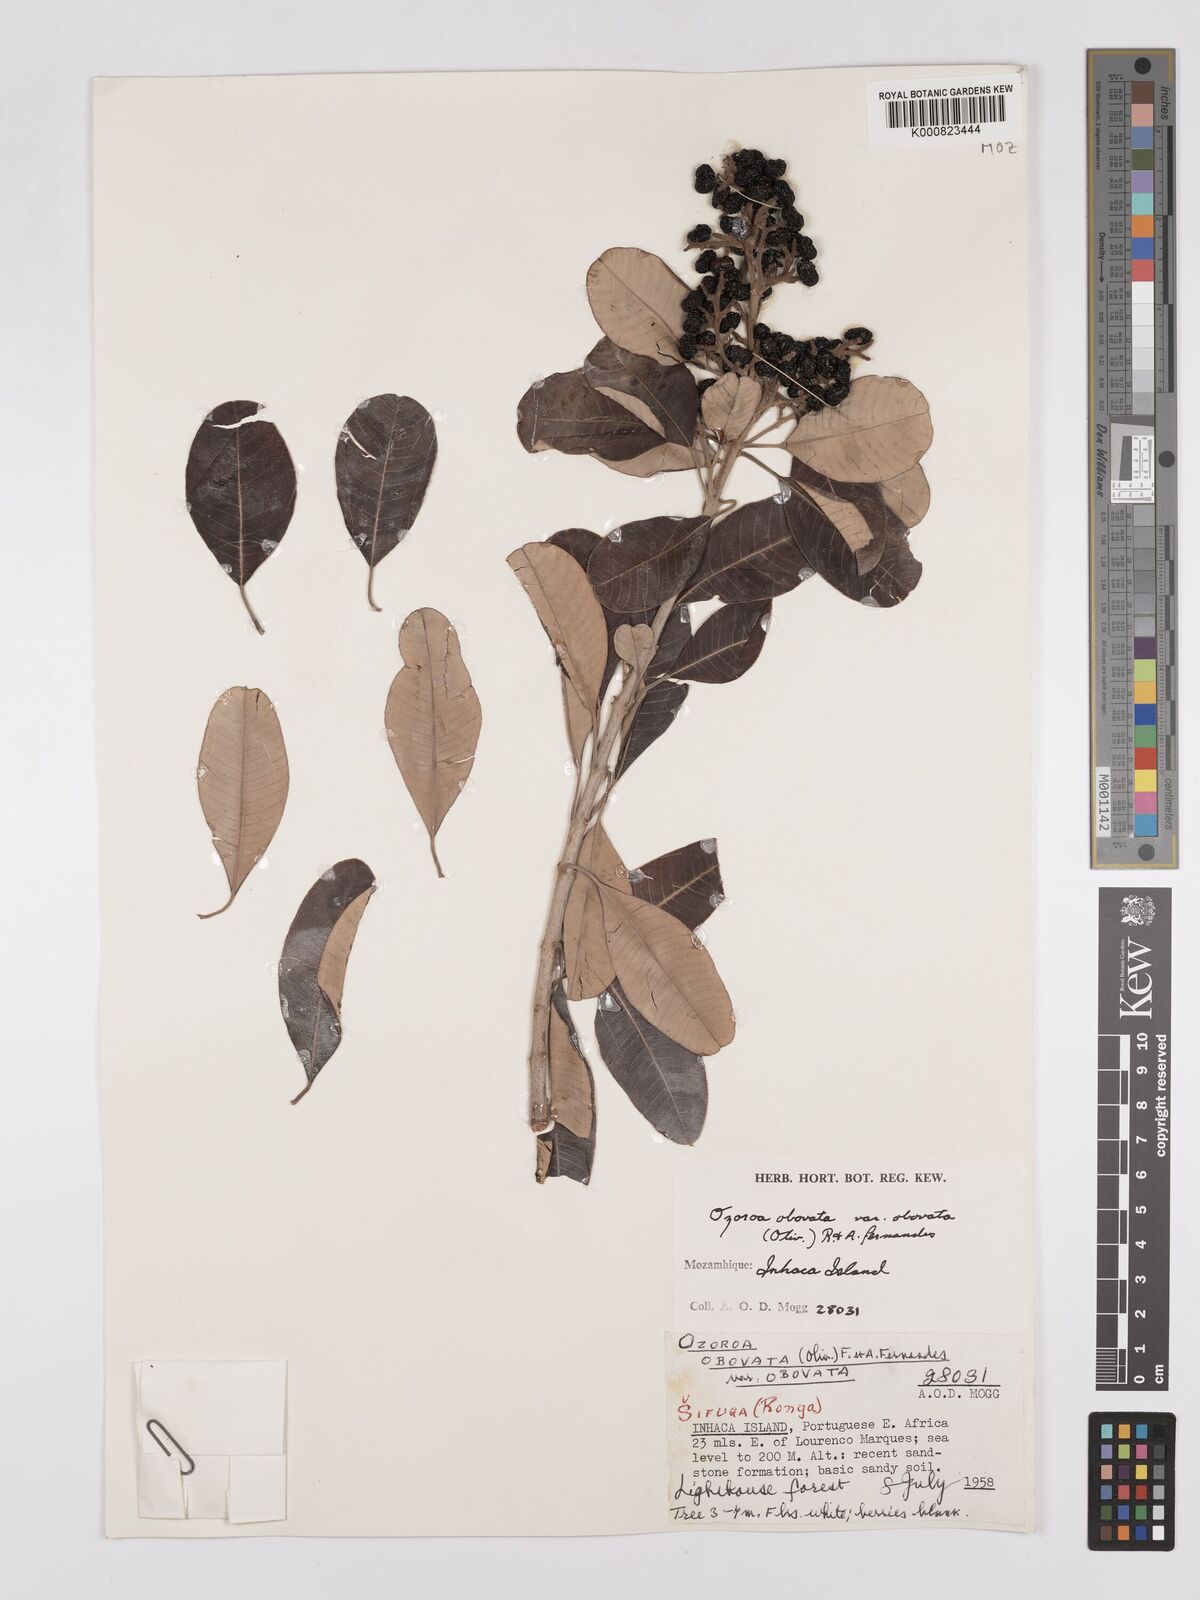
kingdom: Plantae
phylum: Tracheophyta
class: Magnoliopsida
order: Sapindales
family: Anacardiaceae
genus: Ozoroa
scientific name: Ozoroa obovata
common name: Broad-leaved resin tree
